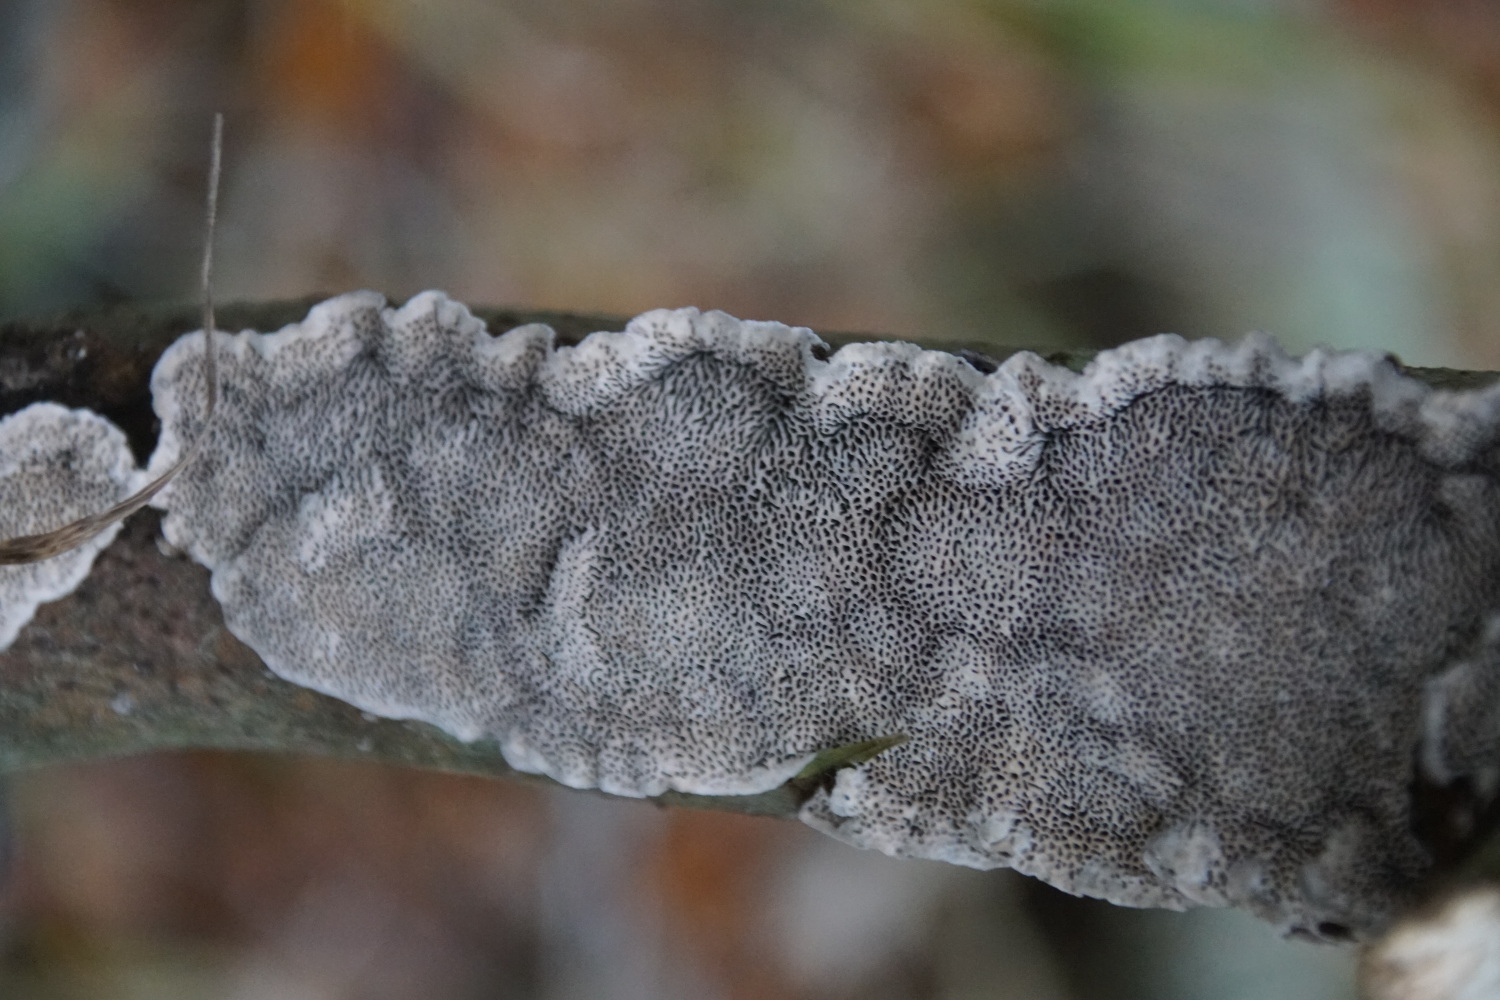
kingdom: Fungi
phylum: Basidiomycota
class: Agaricomycetes
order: Polyporales
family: Polyporaceae
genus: Podofomes
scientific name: Podofomes mollis
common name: blød begporesvamp
